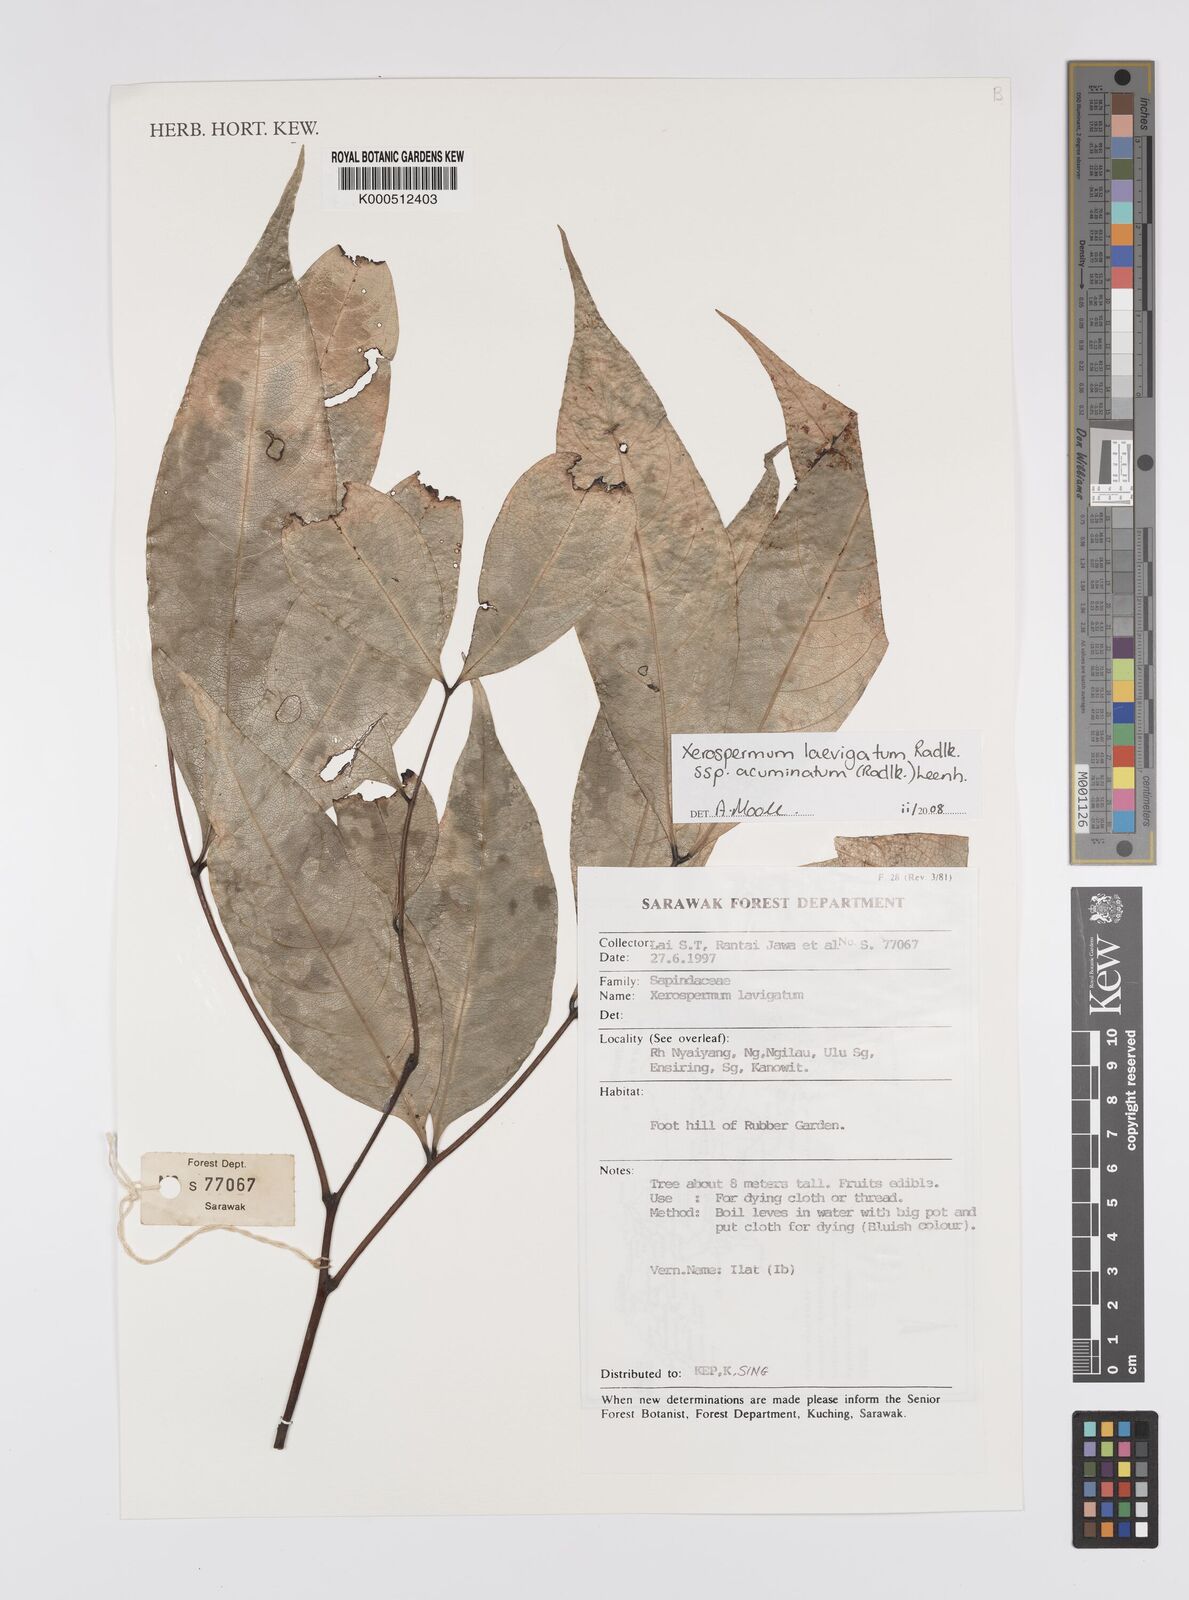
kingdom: Plantae
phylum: Tracheophyta
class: Magnoliopsida
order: Sapindales
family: Sapindaceae
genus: Xerospermum
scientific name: Xerospermum laevigatum
